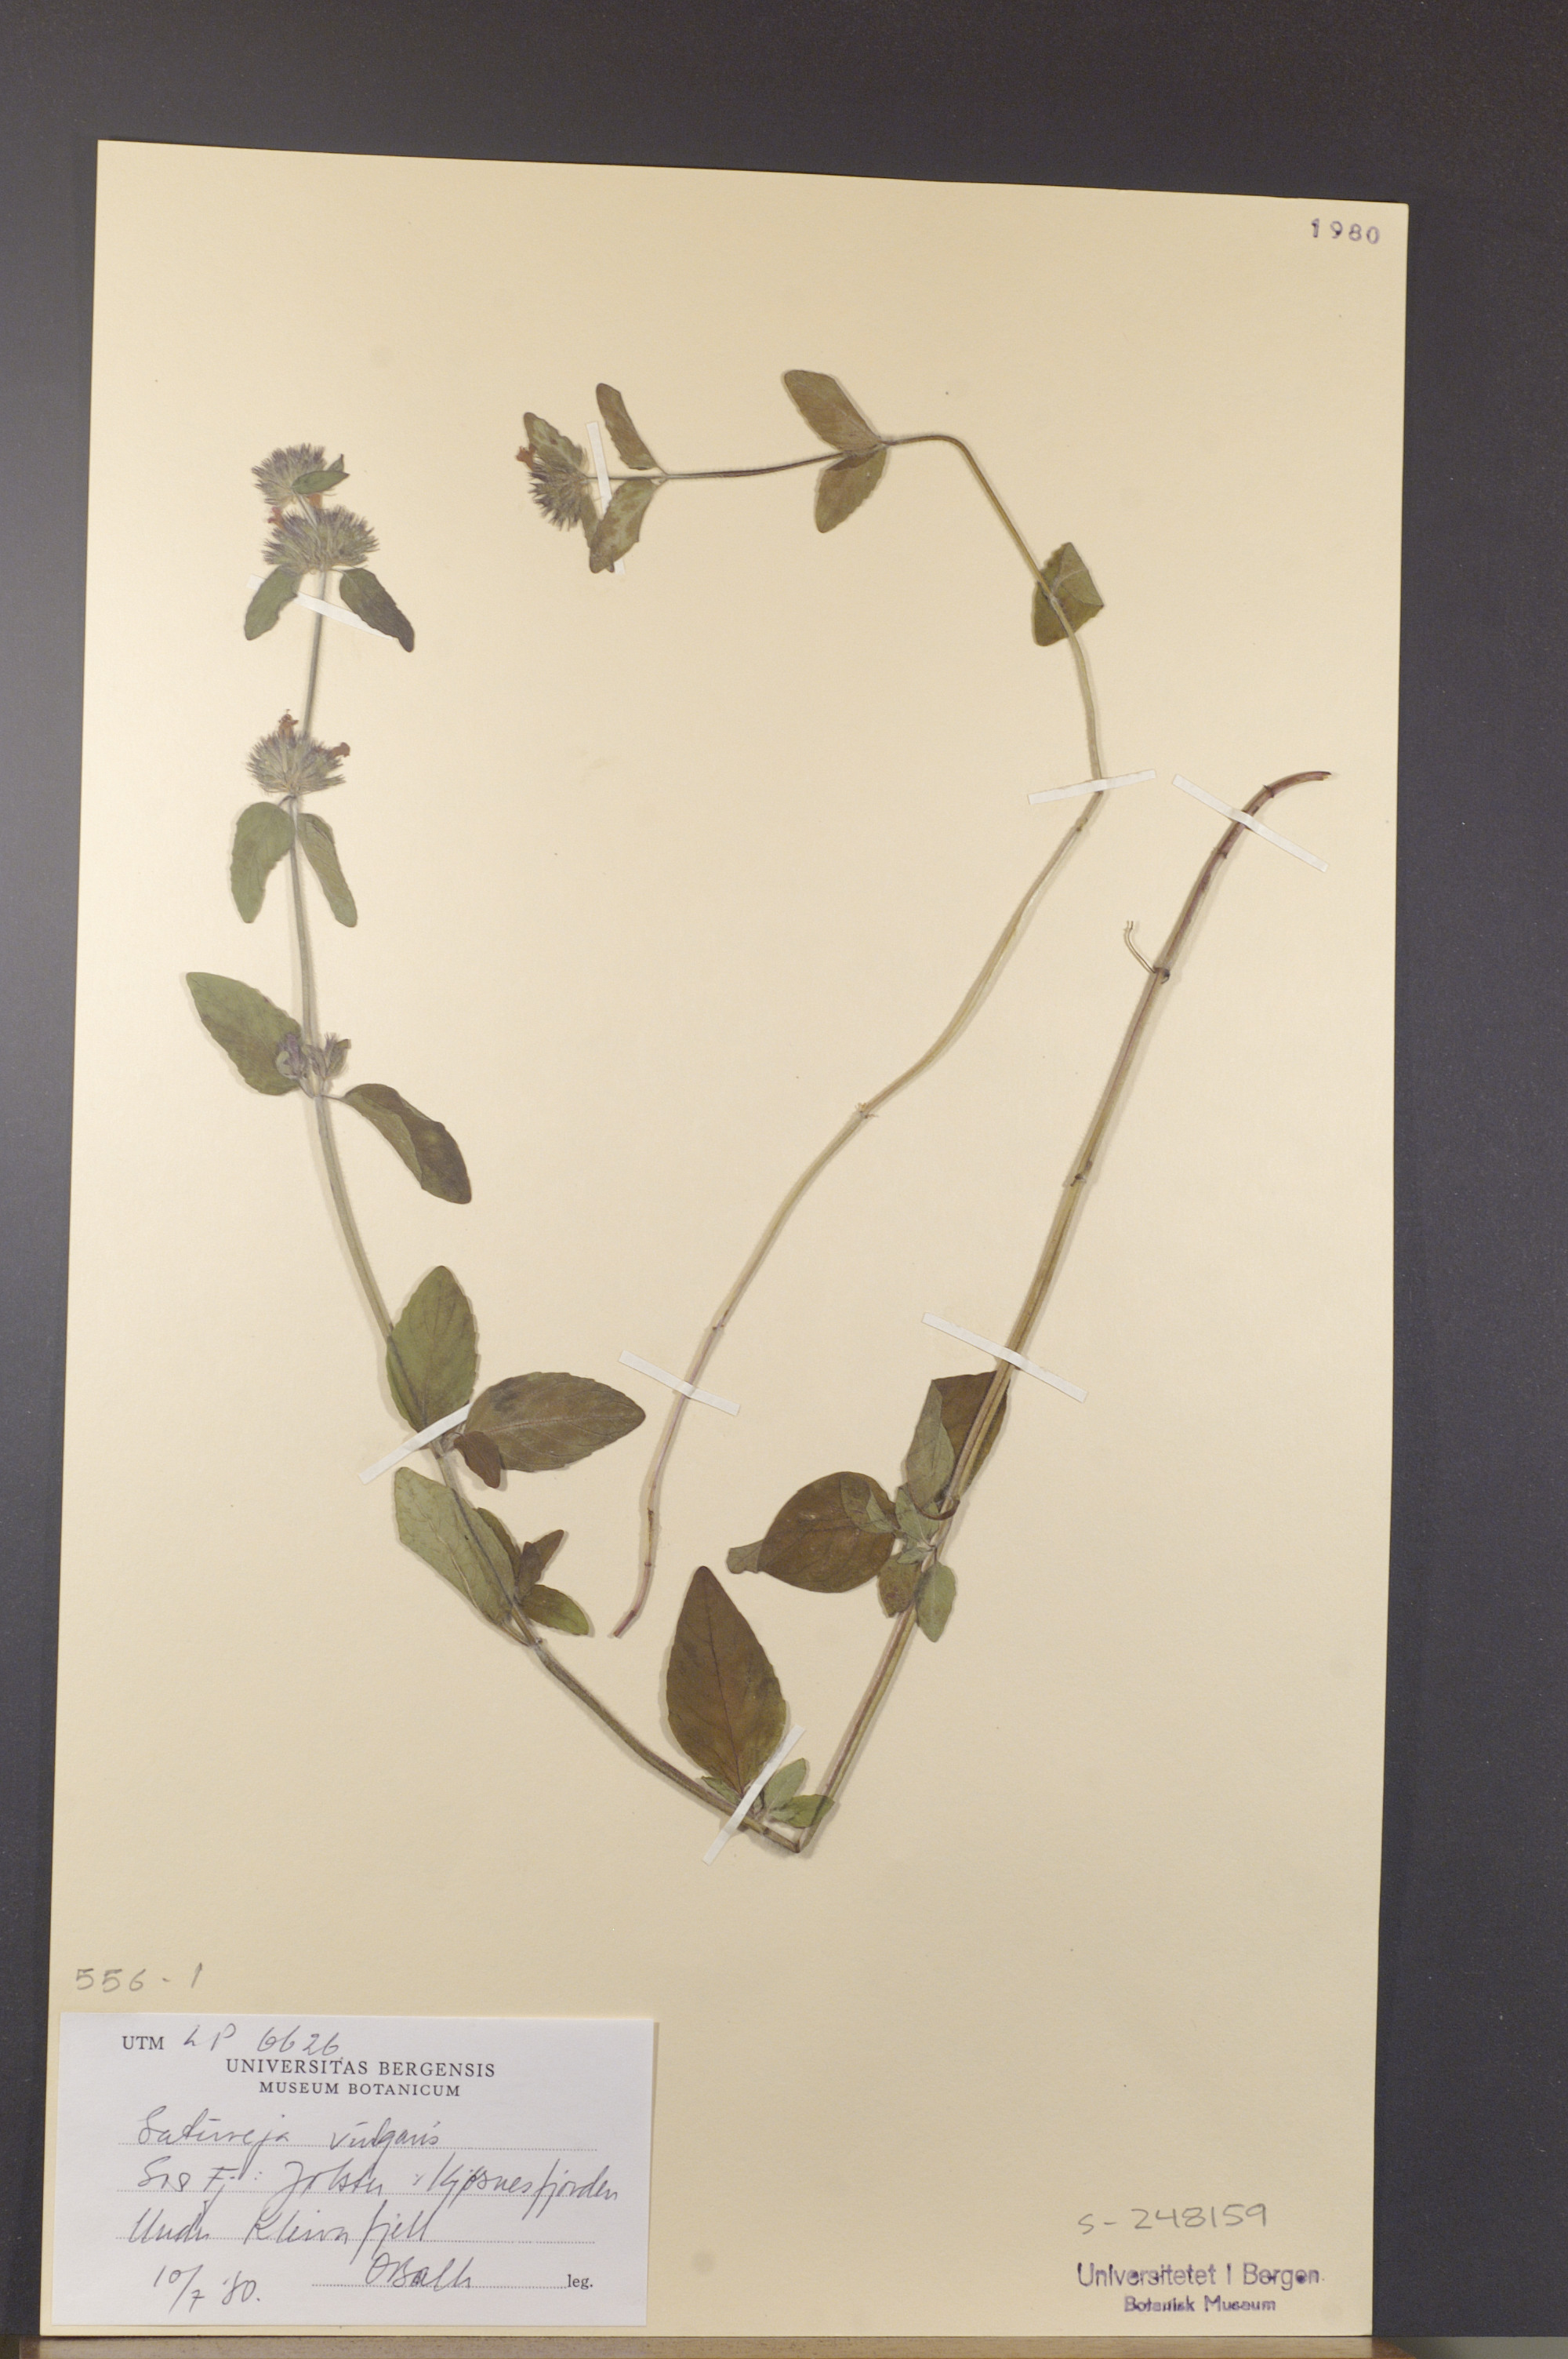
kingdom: Plantae
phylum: Tracheophyta
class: Magnoliopsida
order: Lamiales
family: Lamiaceae
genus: Clinopodium
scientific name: Clinopodium vulgare
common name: Wild basil
